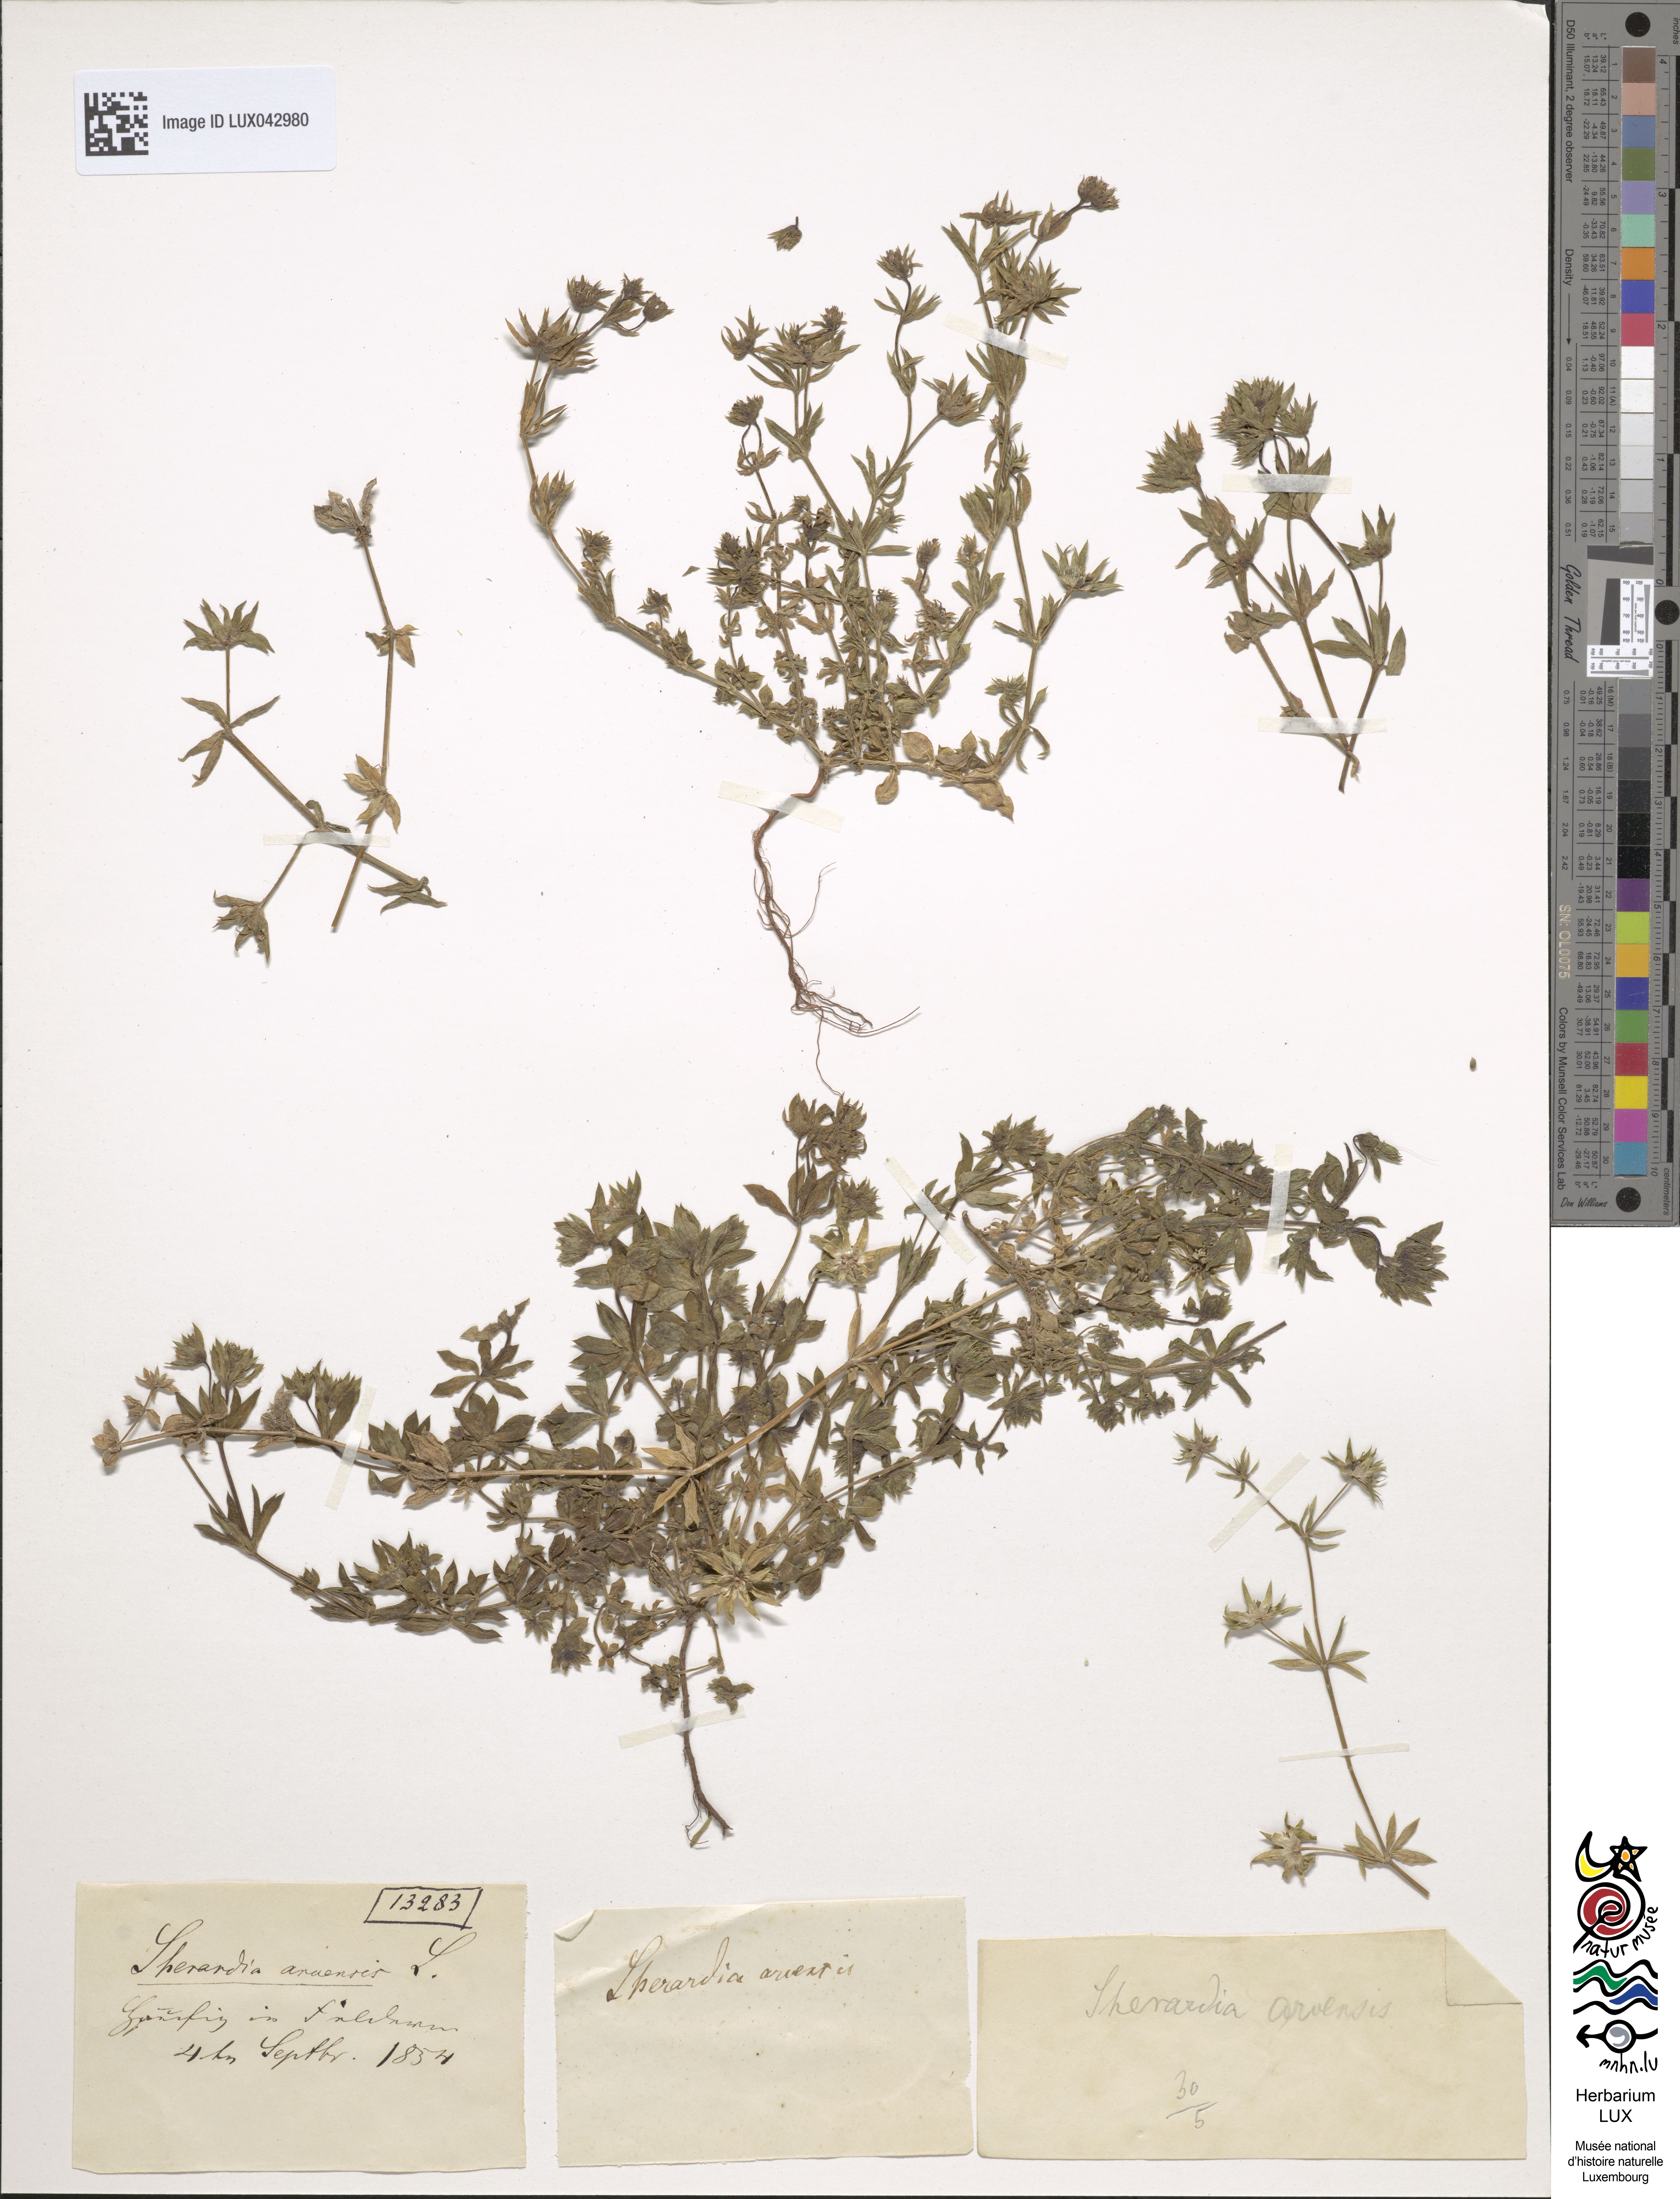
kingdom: Plantae
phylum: Tracheophyta
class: Magnoliopsida
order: Gentianales
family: Rubiaceae
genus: Sherardia
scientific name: Sherardia arvensis
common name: Field madder
